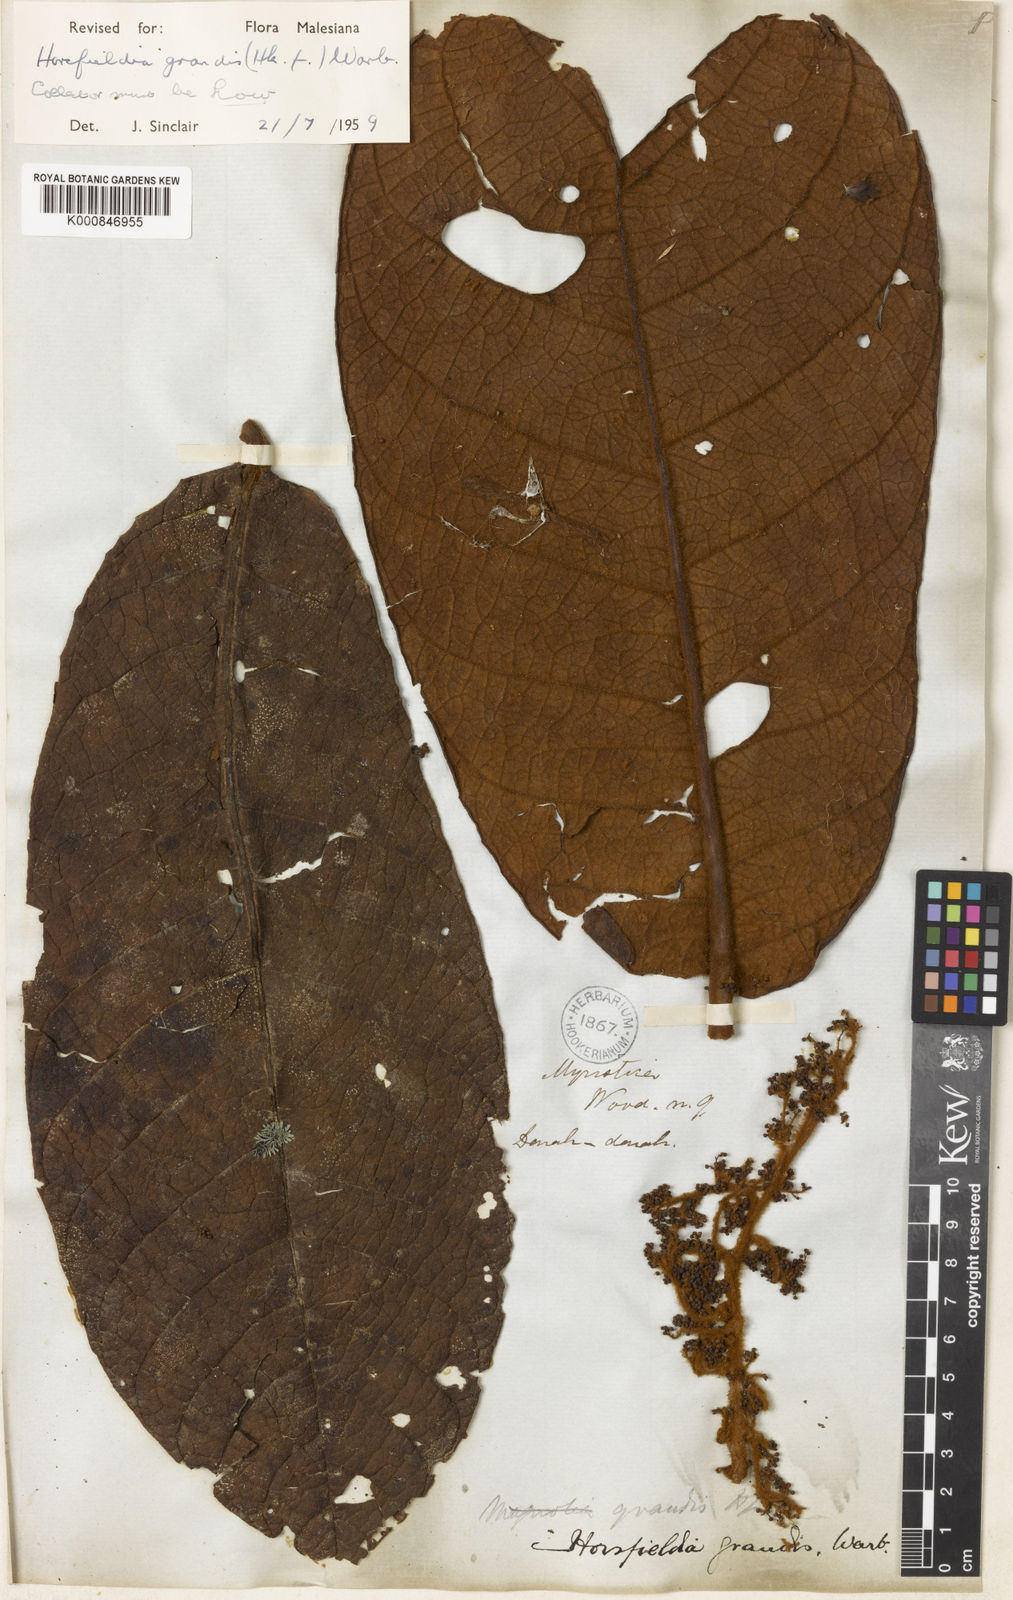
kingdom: Plantae
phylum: Tracheophyta
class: Magnoliopsida
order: Magnoliales
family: Myristicaceae
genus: Horsfieldia
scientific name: Horsfieldia grandis
